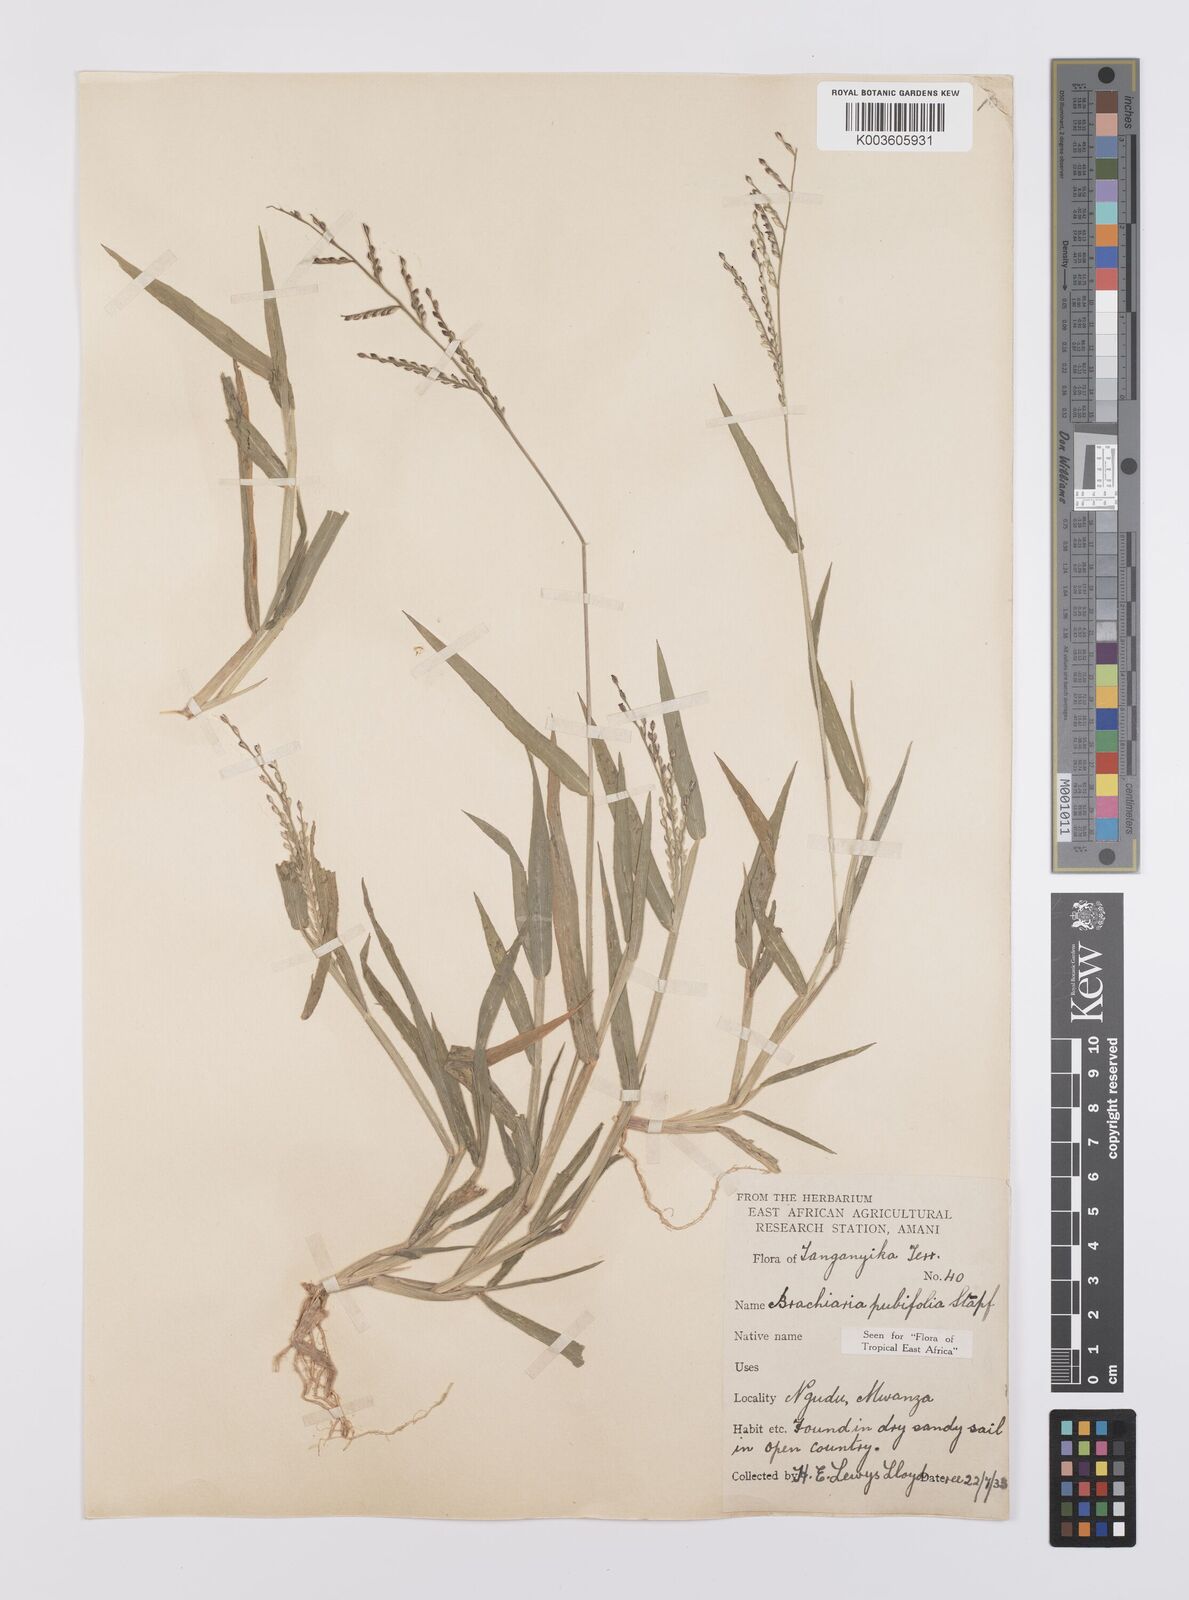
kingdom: Plantae
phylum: Tracheophyta
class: Liliopsida
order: Poales
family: Poaceae
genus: Urochloa
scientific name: Urochloa xantholeuca
